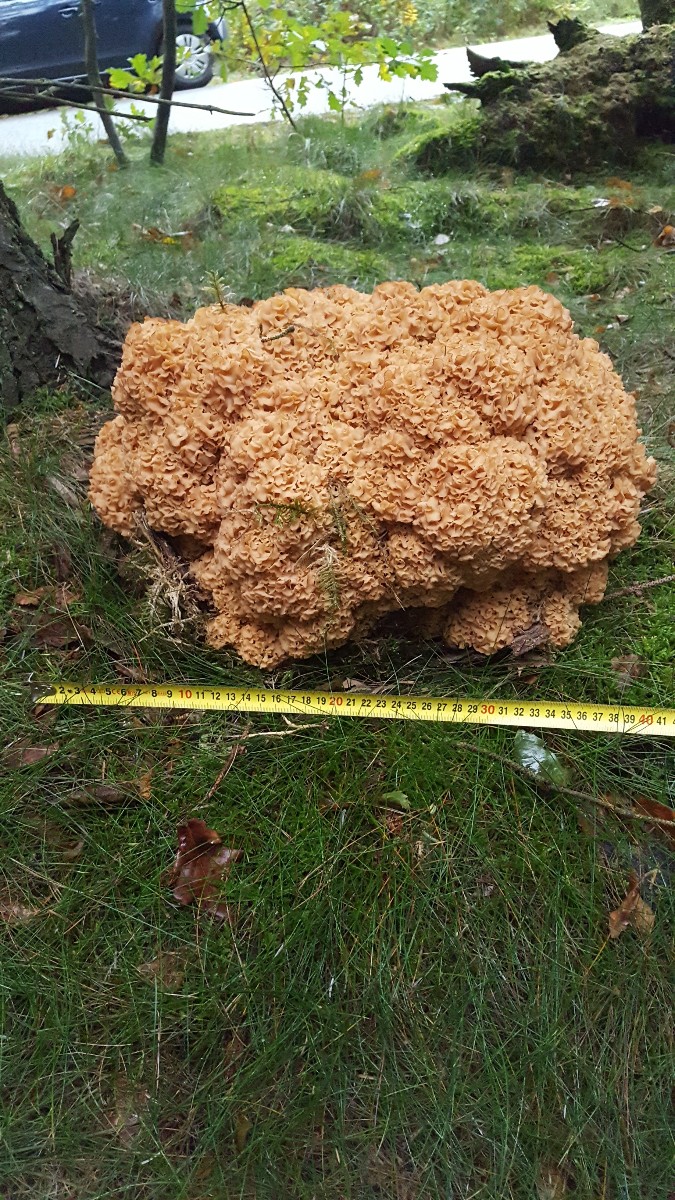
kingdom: Fungi
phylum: Basidiomycota
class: Agaricomycetes
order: Polyporales
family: Sparassidaceae
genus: Sparassis
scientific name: Sparassis crispa
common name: kruset blomkålssvamp
